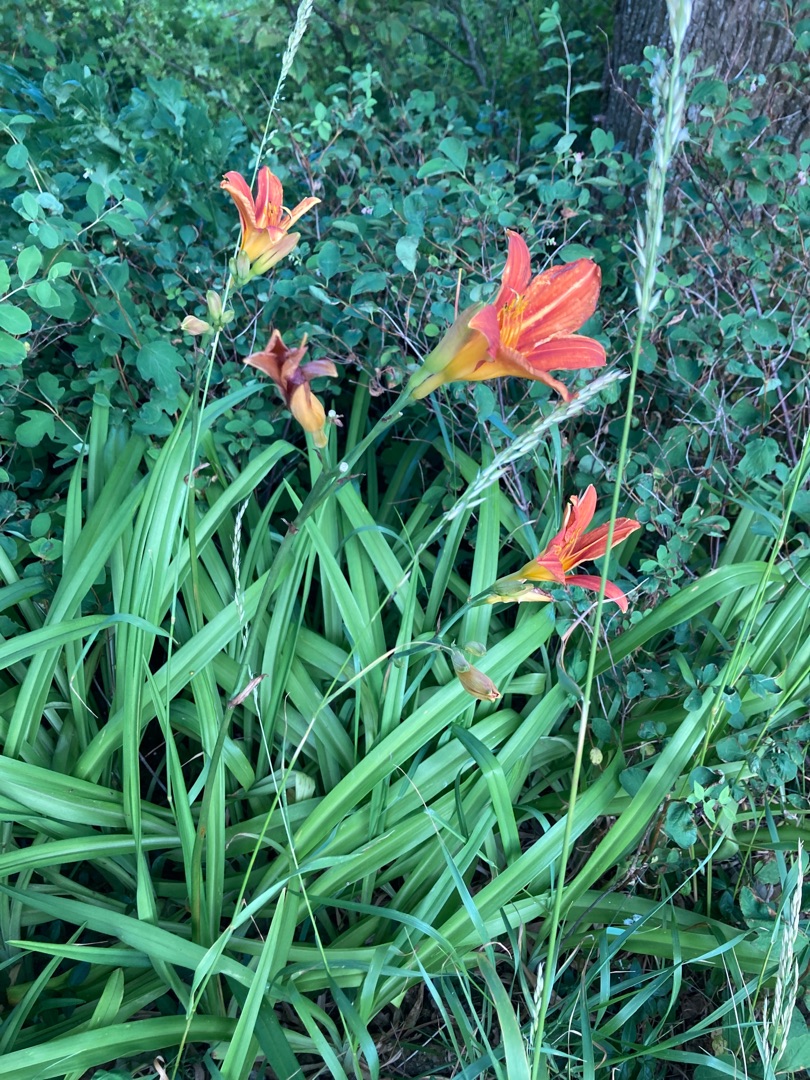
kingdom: Plantae
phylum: Tracheophyta
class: Liliopsida
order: Asparagales
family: Asphodelaceae
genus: Hemerocallis
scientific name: Hemerocallis fulva
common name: Rødgul daglilje
